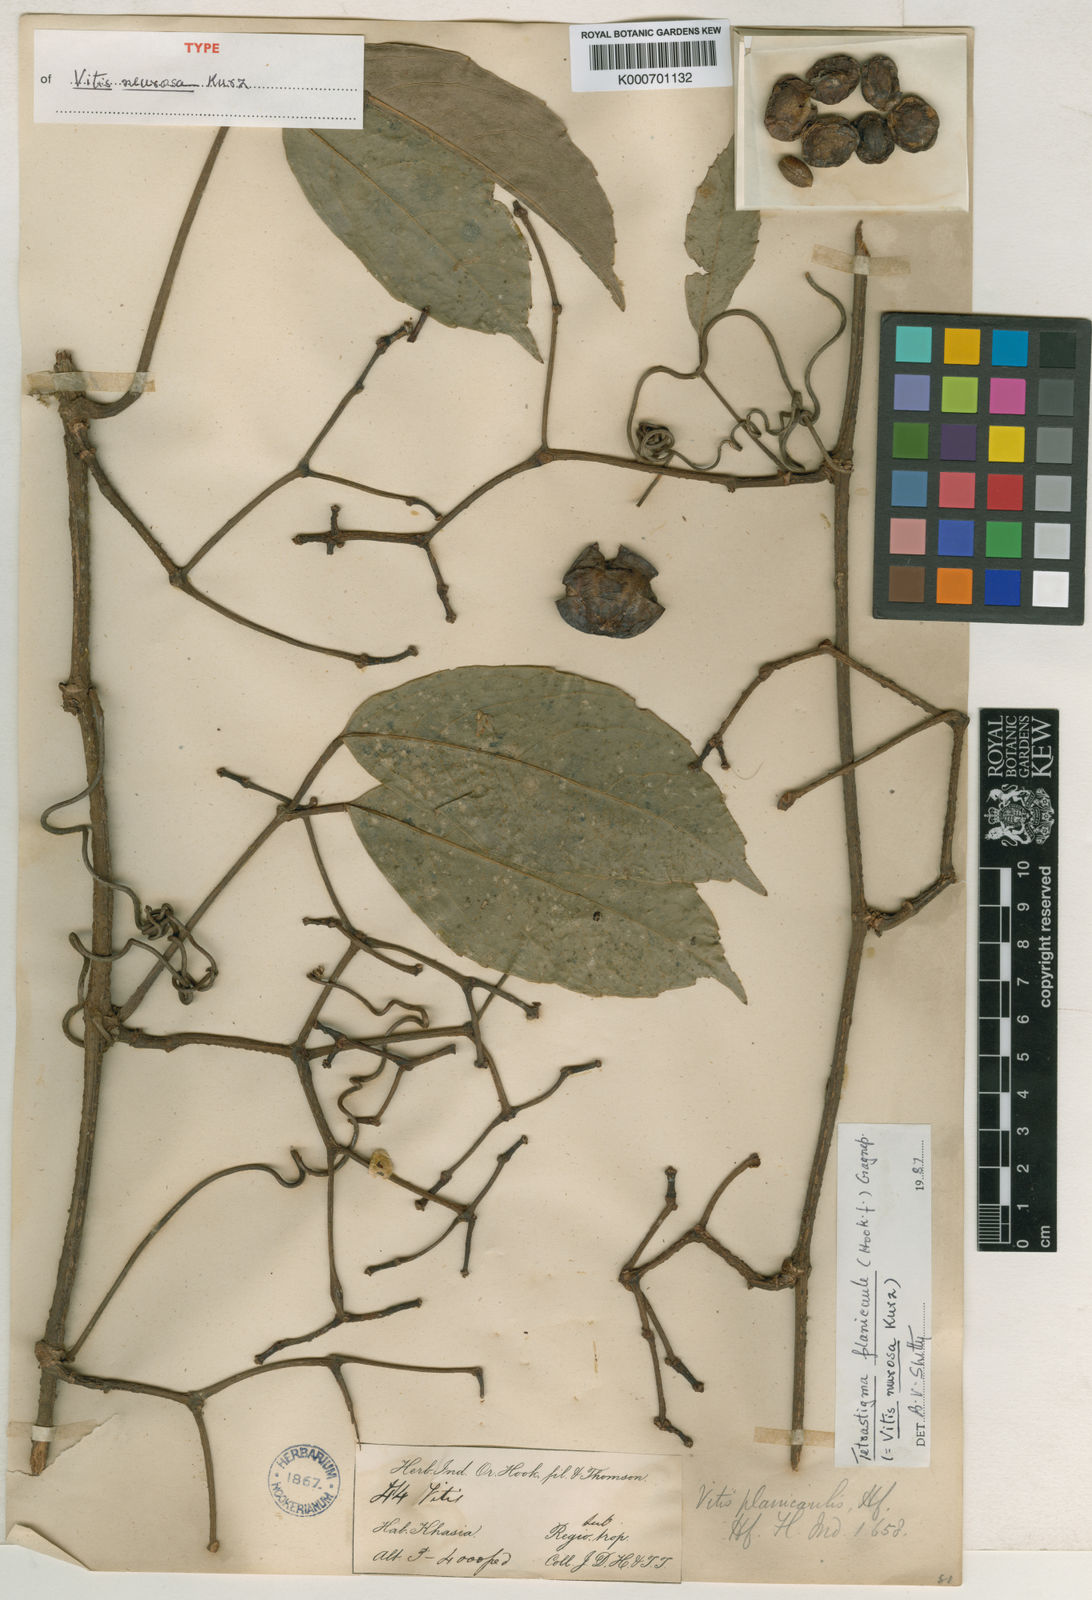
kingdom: Plantae
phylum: Tracheophyta
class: Magnoliopsida
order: Vitales
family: Vitaceae
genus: Tetrastigma
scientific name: Tetrastigma planicaule
